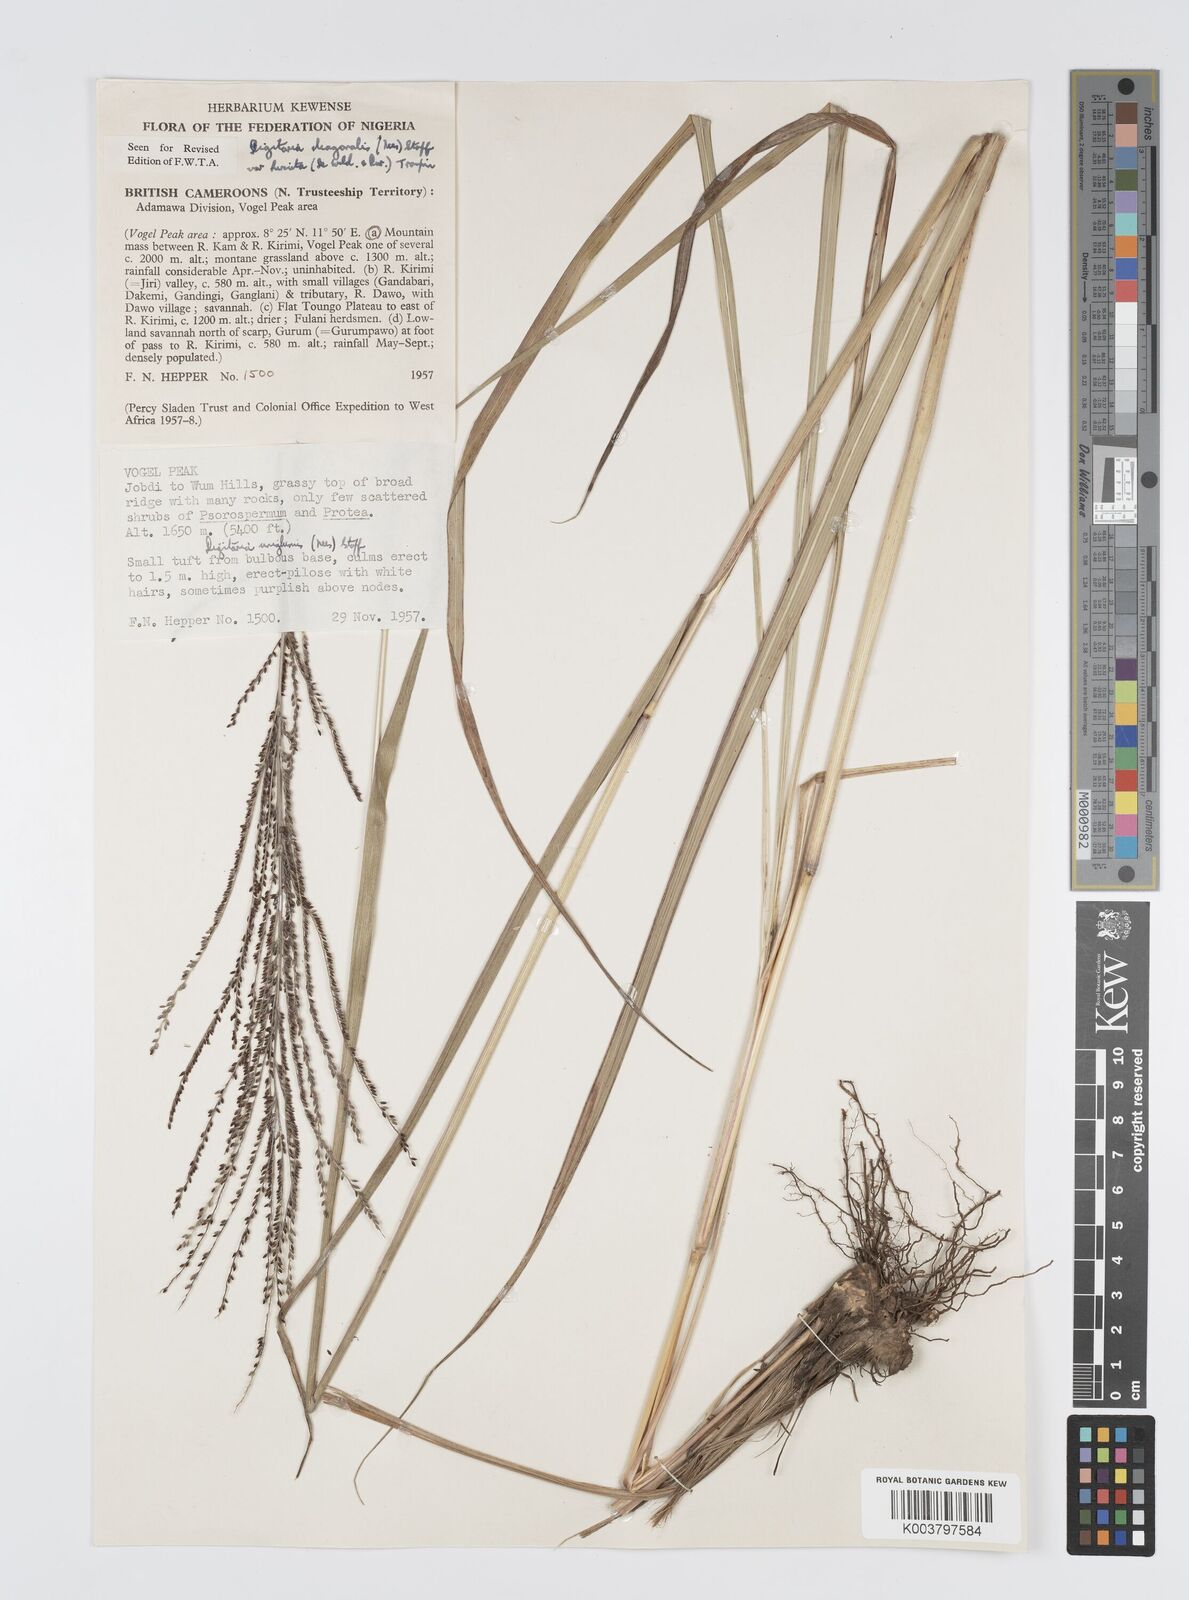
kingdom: Plantae
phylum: Tracheophyta
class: Liliopsida
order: Poales
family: Poaceae
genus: Digitaria
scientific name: Digitaria diagonalis
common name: Brown-seed finger grass
